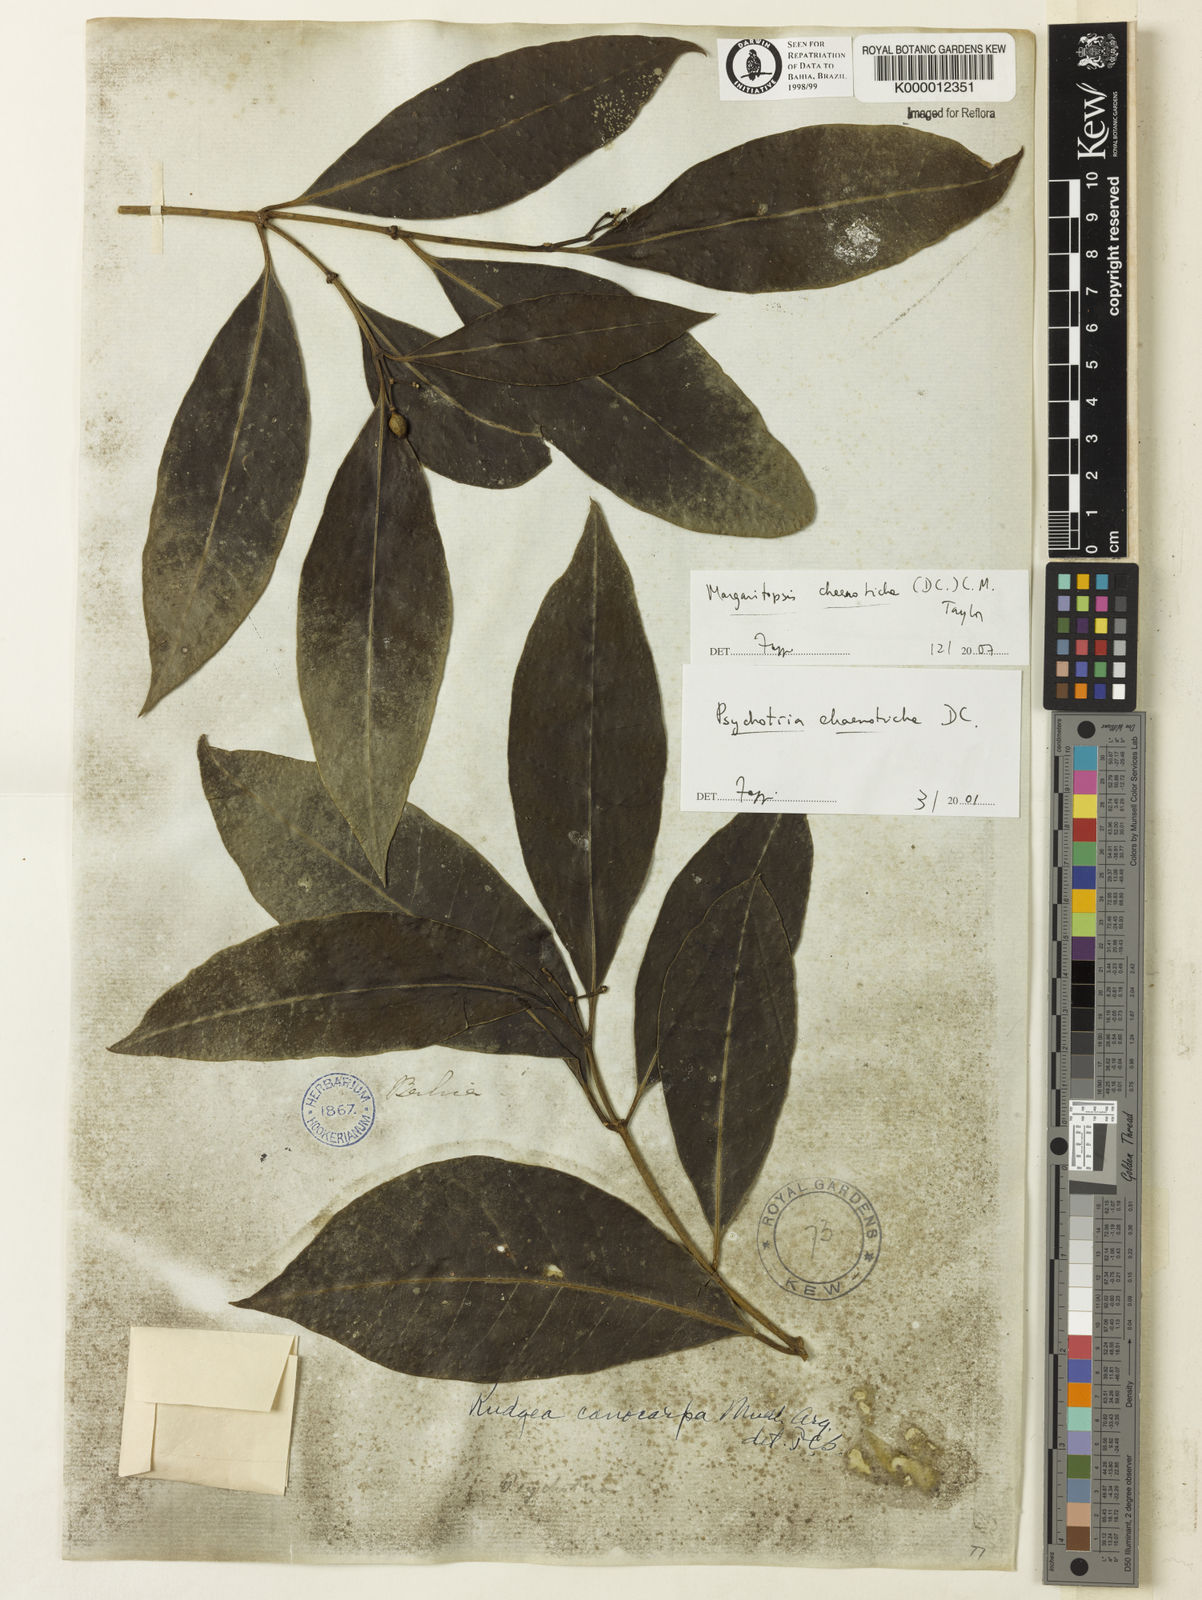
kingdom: Plantae
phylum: Tracheophyta
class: Magnoliopsida
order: Gentianales
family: Rubiaceae
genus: Eumachia
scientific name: Eumachia chaenotricha
